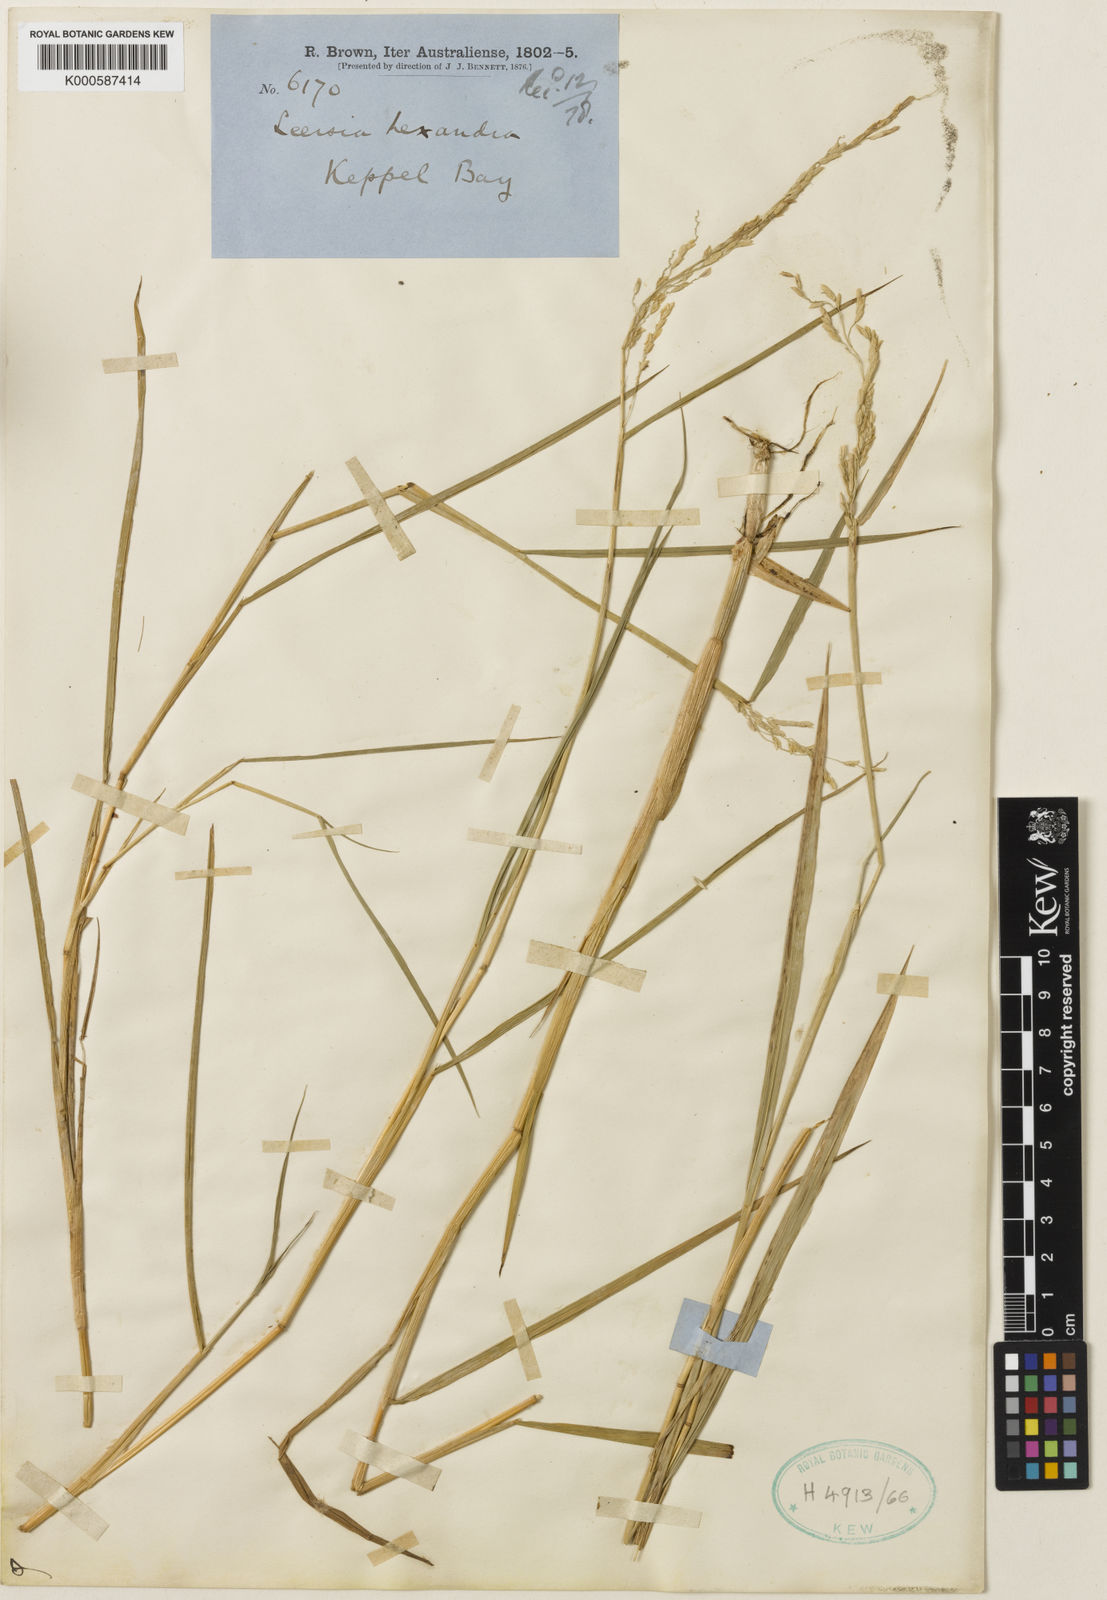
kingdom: Plantae
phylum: Tracheophyta
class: Liliopsida
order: Poales
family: Poaceae
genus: Leersia
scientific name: Leersia hexandra
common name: Southern cut grass
